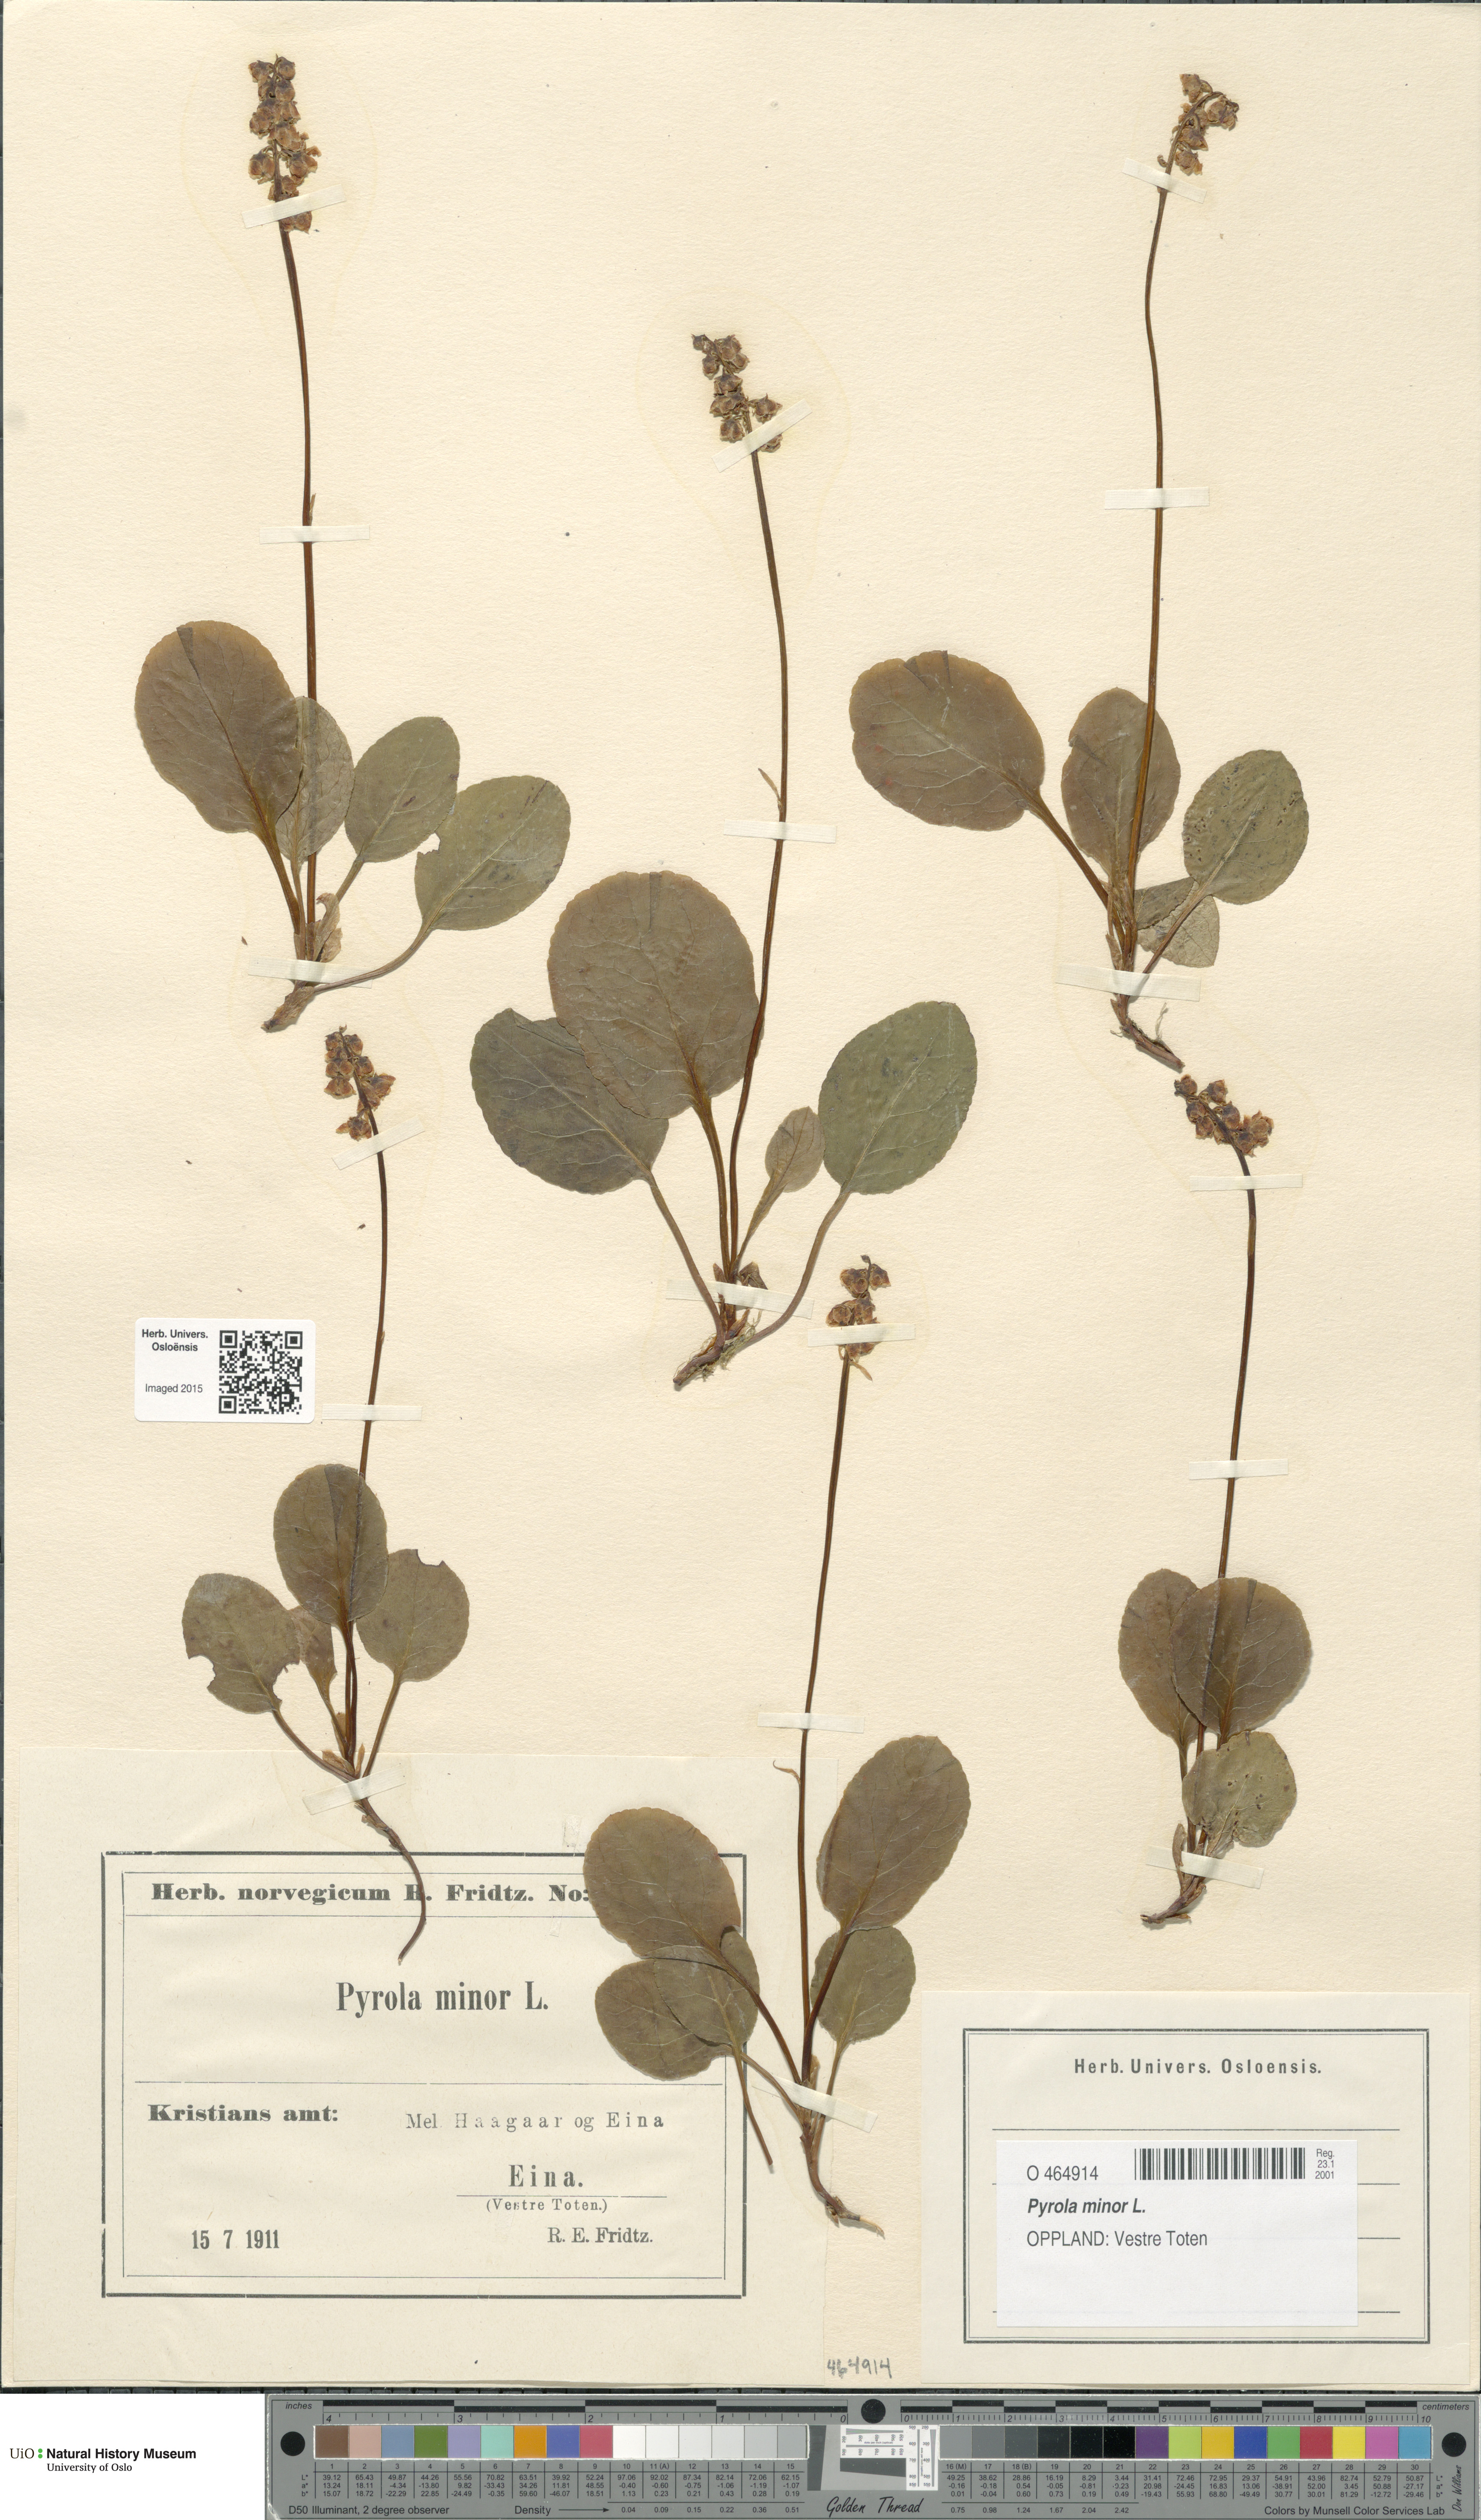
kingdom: Plantae
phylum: Tracheophyta
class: Magnoliopsida
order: Ericales
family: Ericaceae
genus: Pyrola
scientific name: Pyrola minor
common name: Common wintergreen
